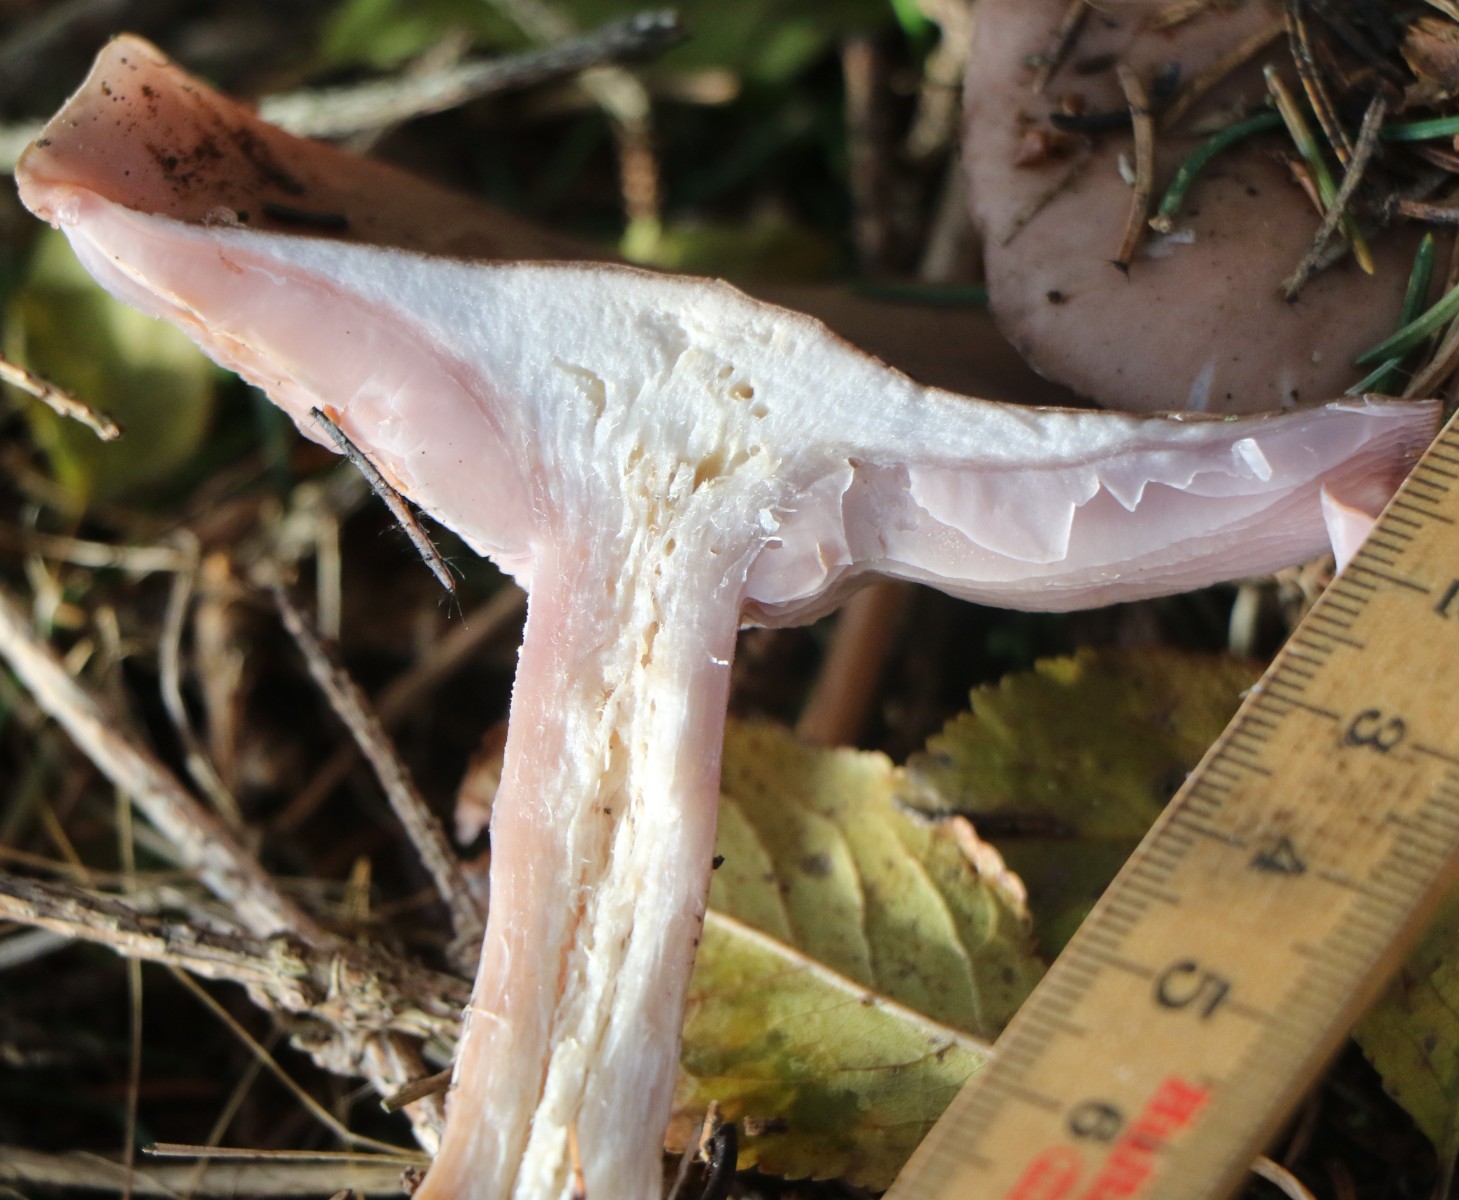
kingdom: Fungi
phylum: Basidiomycota
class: Agaricomycetes
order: Agaricales
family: Tricholomataceae
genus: Lepista
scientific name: Lepista nuda
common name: violet hekseringshat
